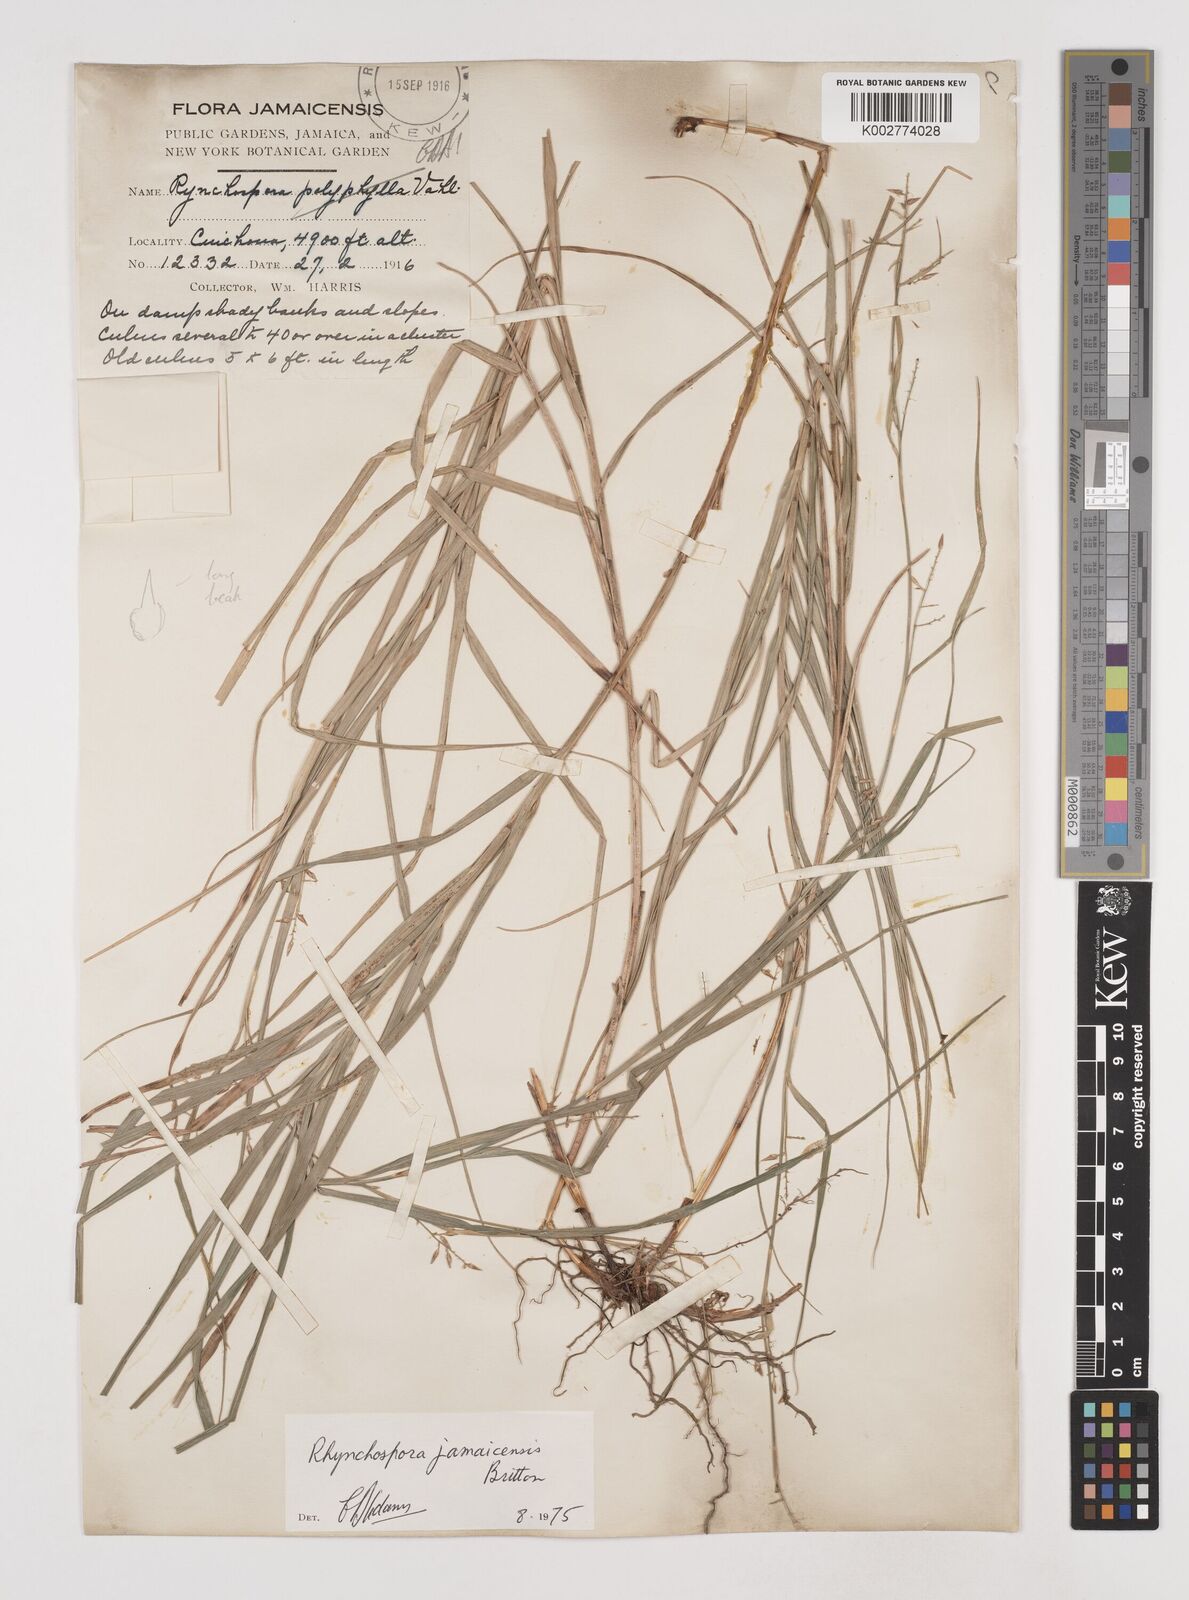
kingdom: Plantae
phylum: Tracheophyta
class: Liliopsida
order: Poales
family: Cyperaceae
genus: Rhynchospora
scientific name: Rhynchospora jamaicensis
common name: Jamaican beaksedge
